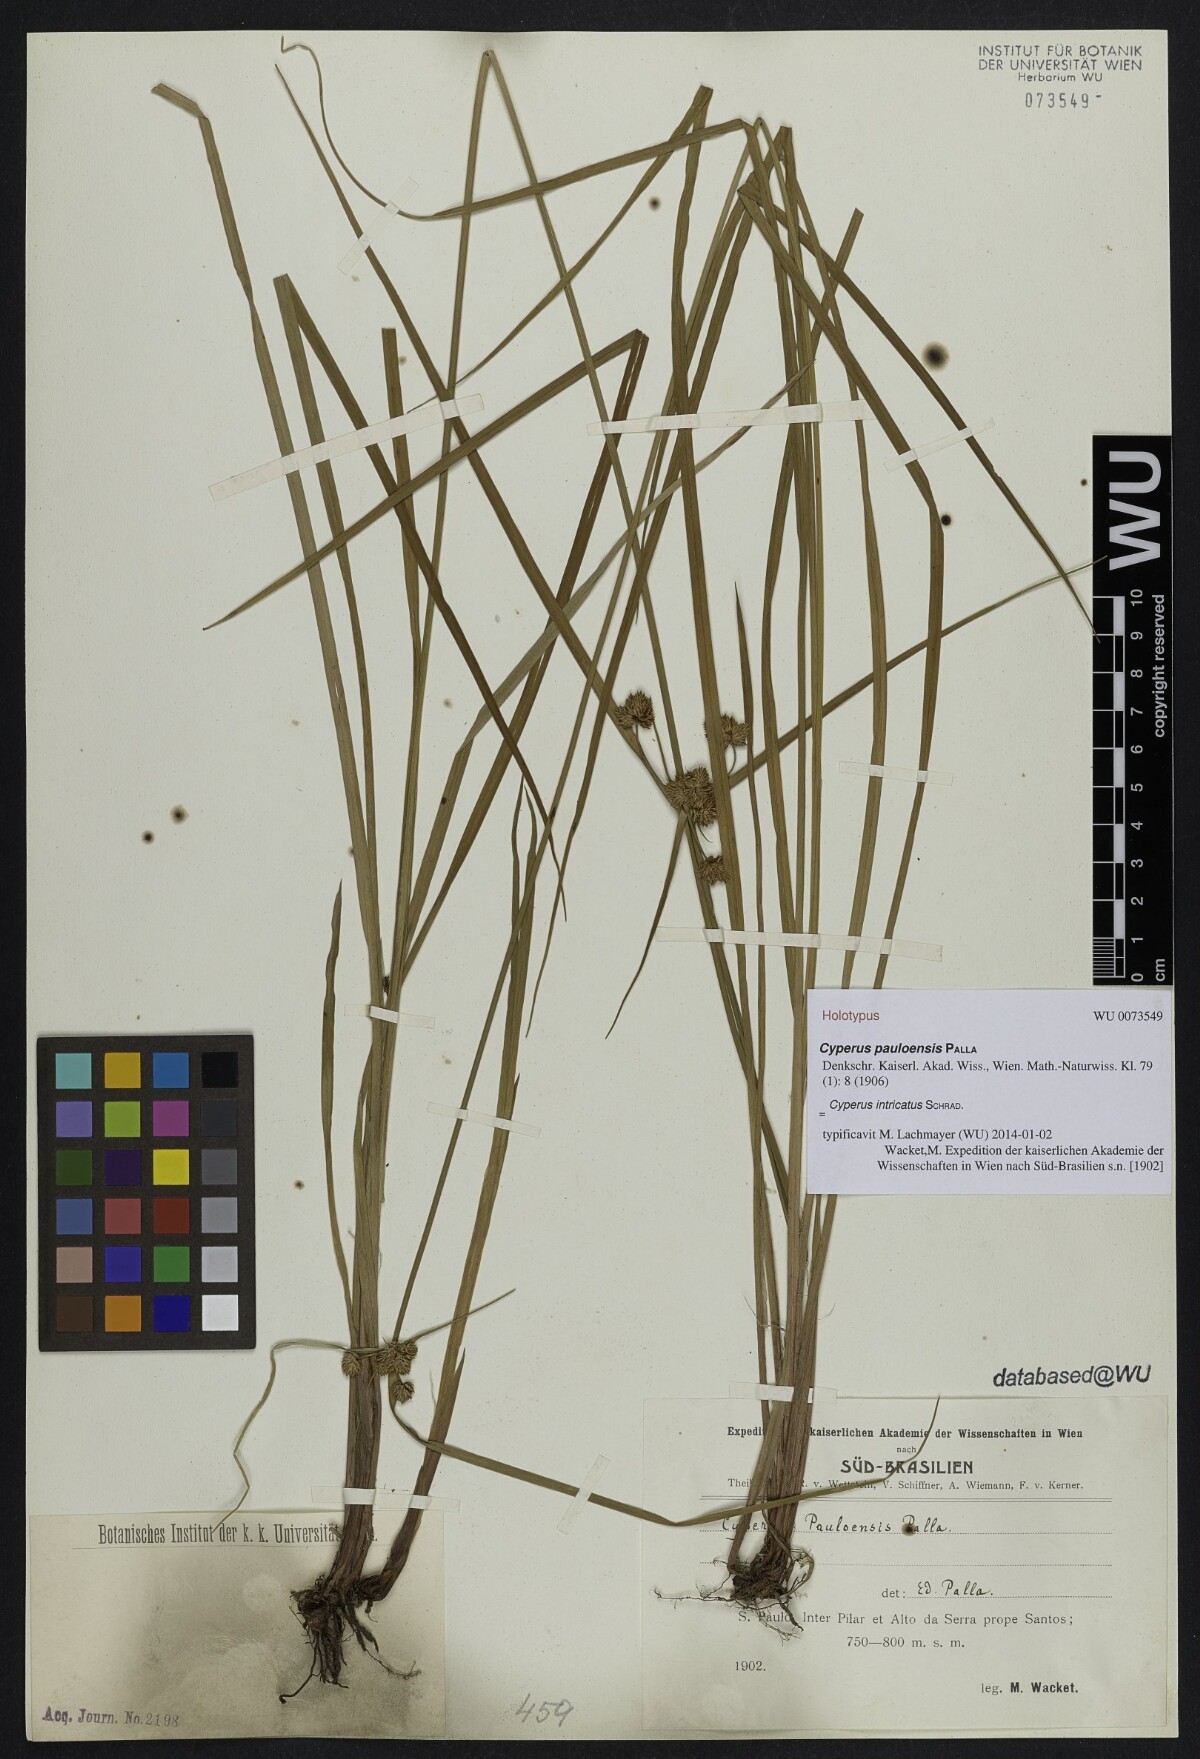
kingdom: Plantae
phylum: Tracheophyta
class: Liliopsida
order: Poales
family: Cyperaceae
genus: Cyperus
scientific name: Cyperus intricatus
